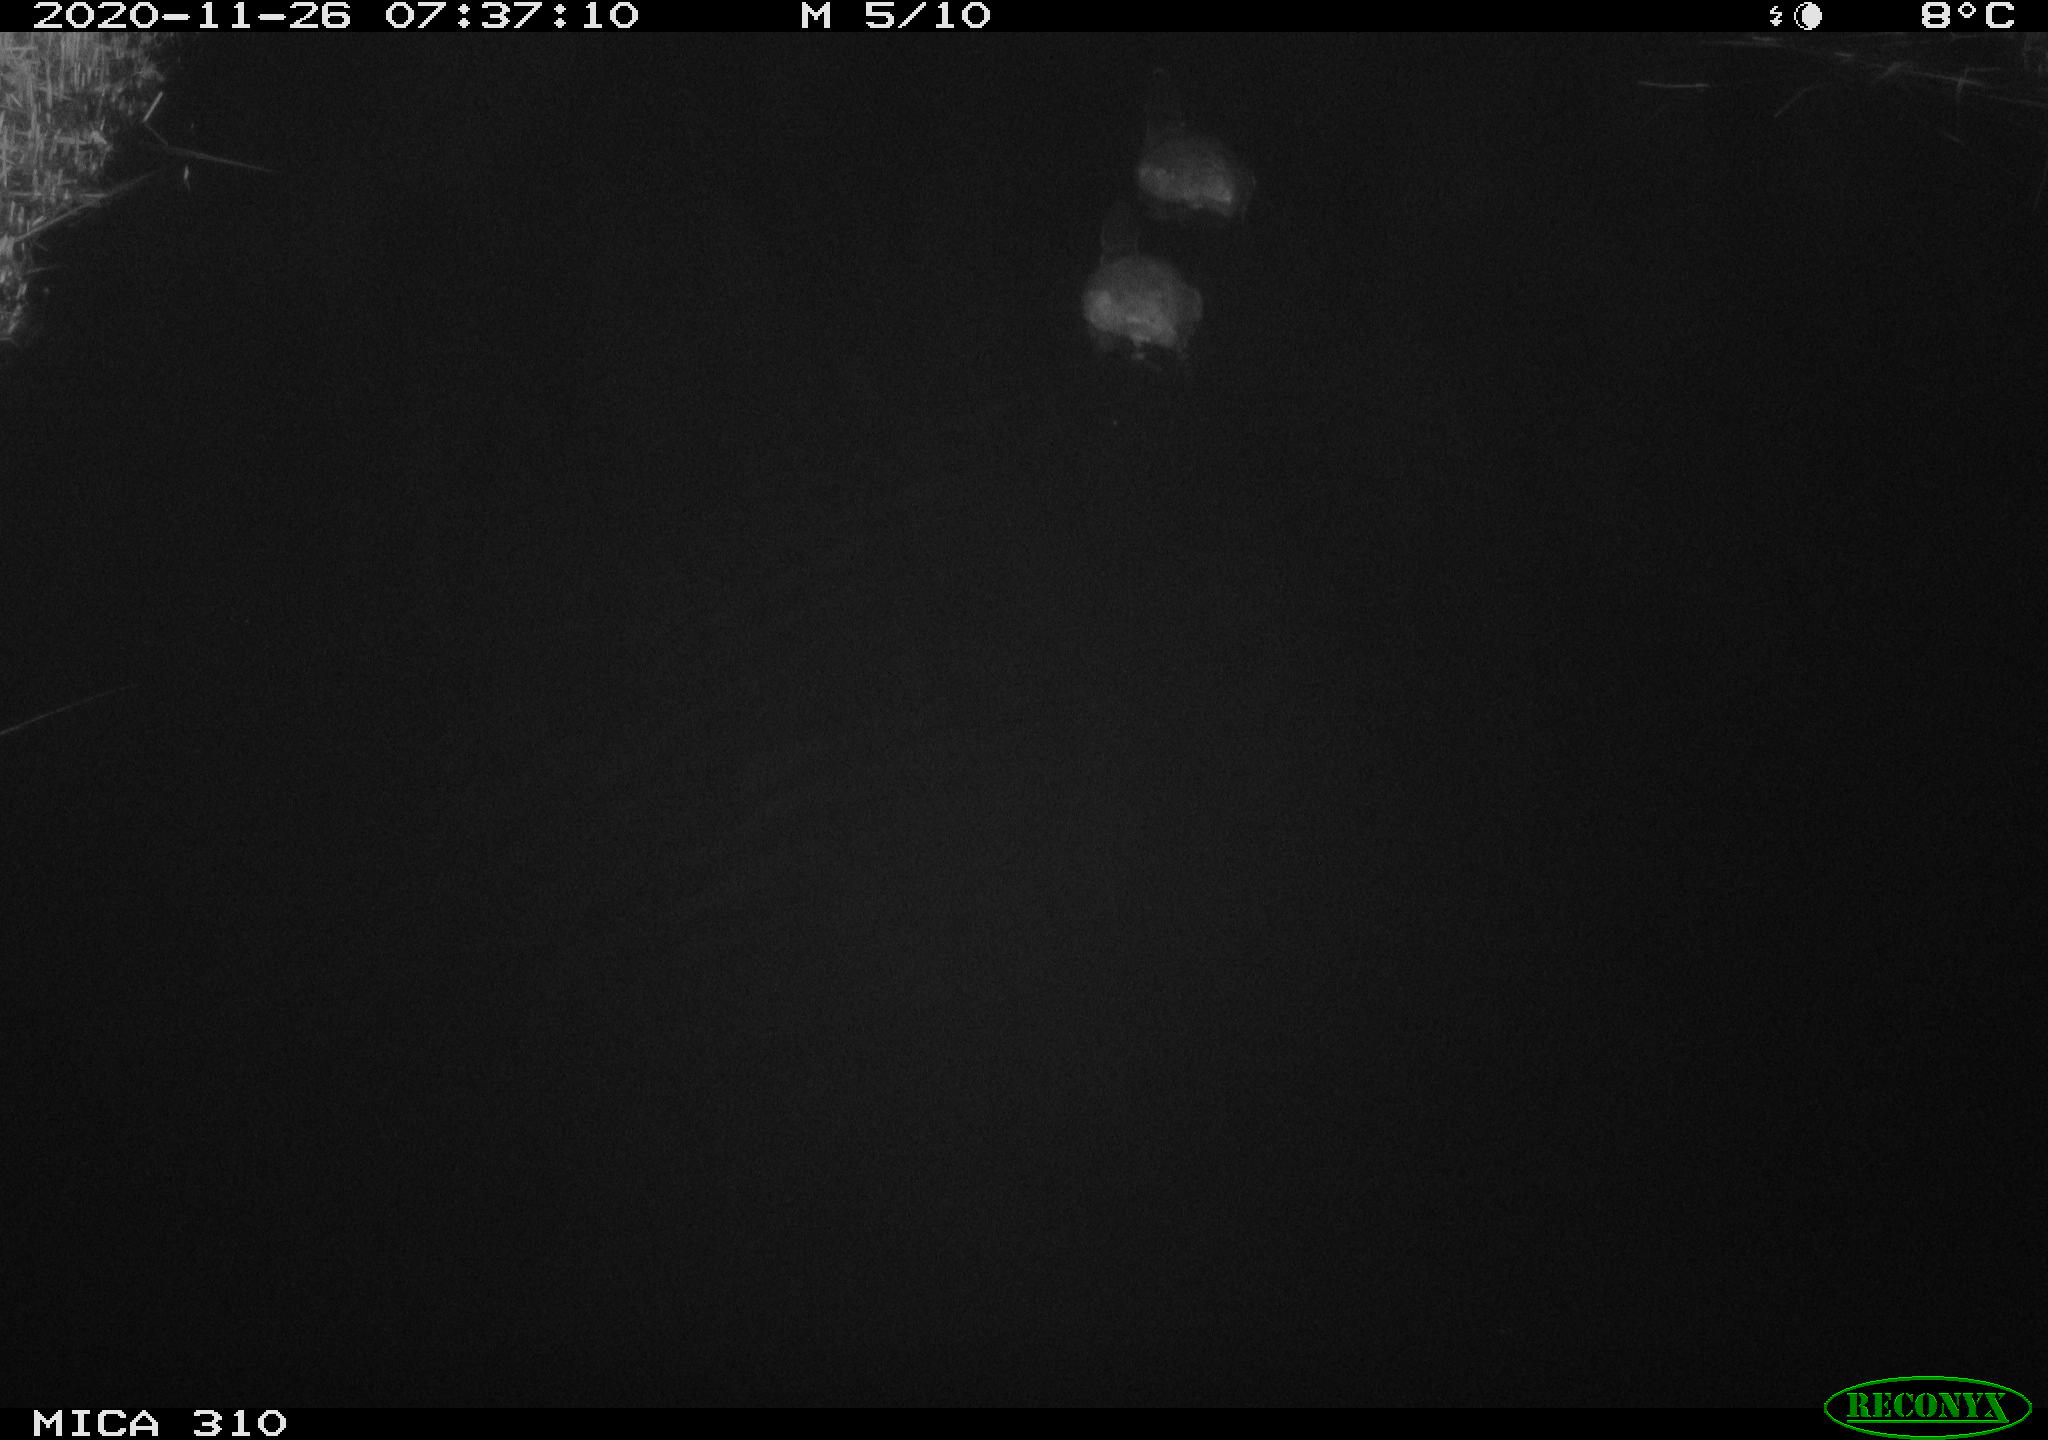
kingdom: Animalia
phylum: Chordata
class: Aves
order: Gruiformes
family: Rallidae
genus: Fulica
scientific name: Fulica atra
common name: Eurasian coot
